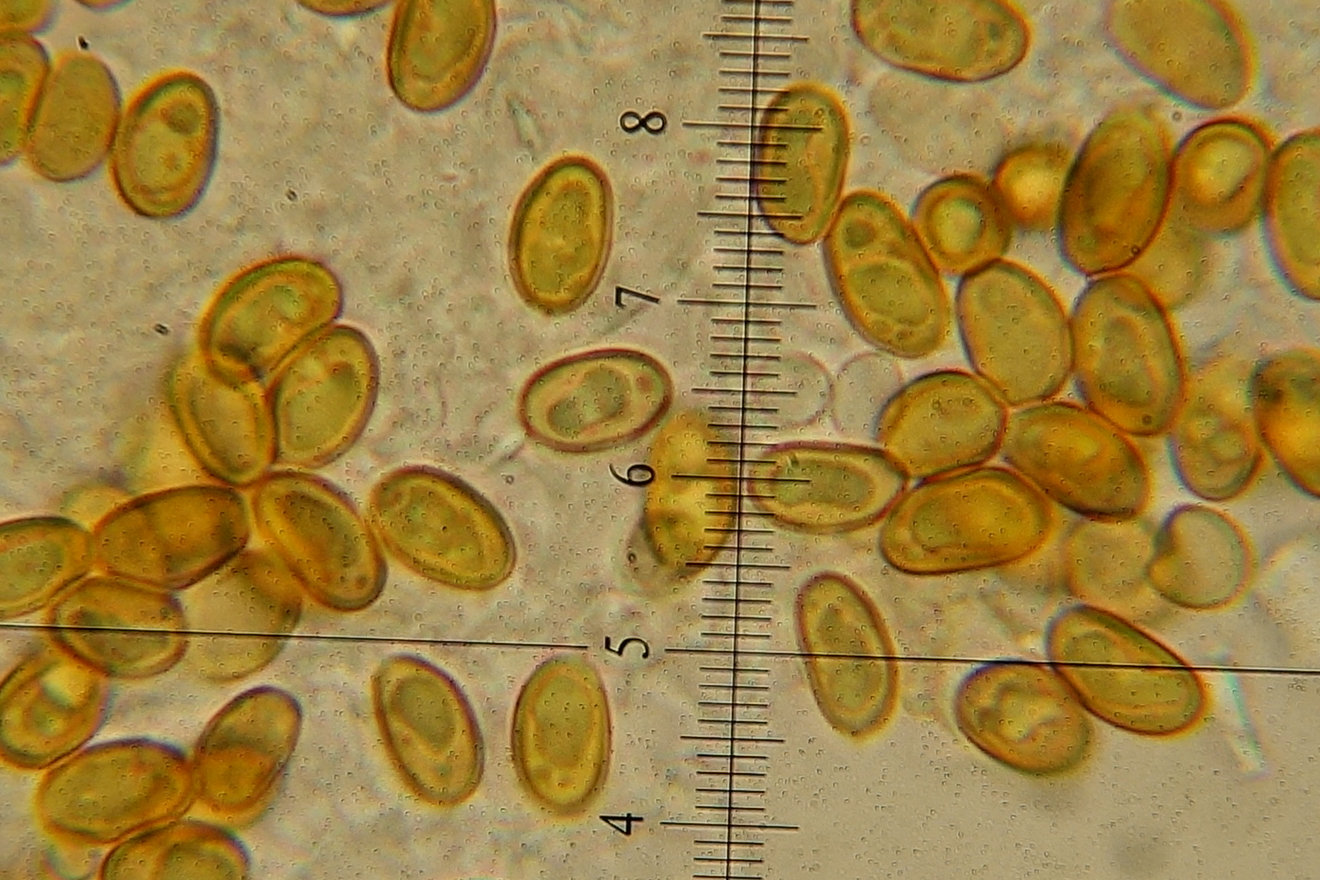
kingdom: Fungi
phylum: Basidiomycota
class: Agaricomycetes
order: Boletales
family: Serpulaceae
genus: Serpula
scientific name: Serpula himantioides
